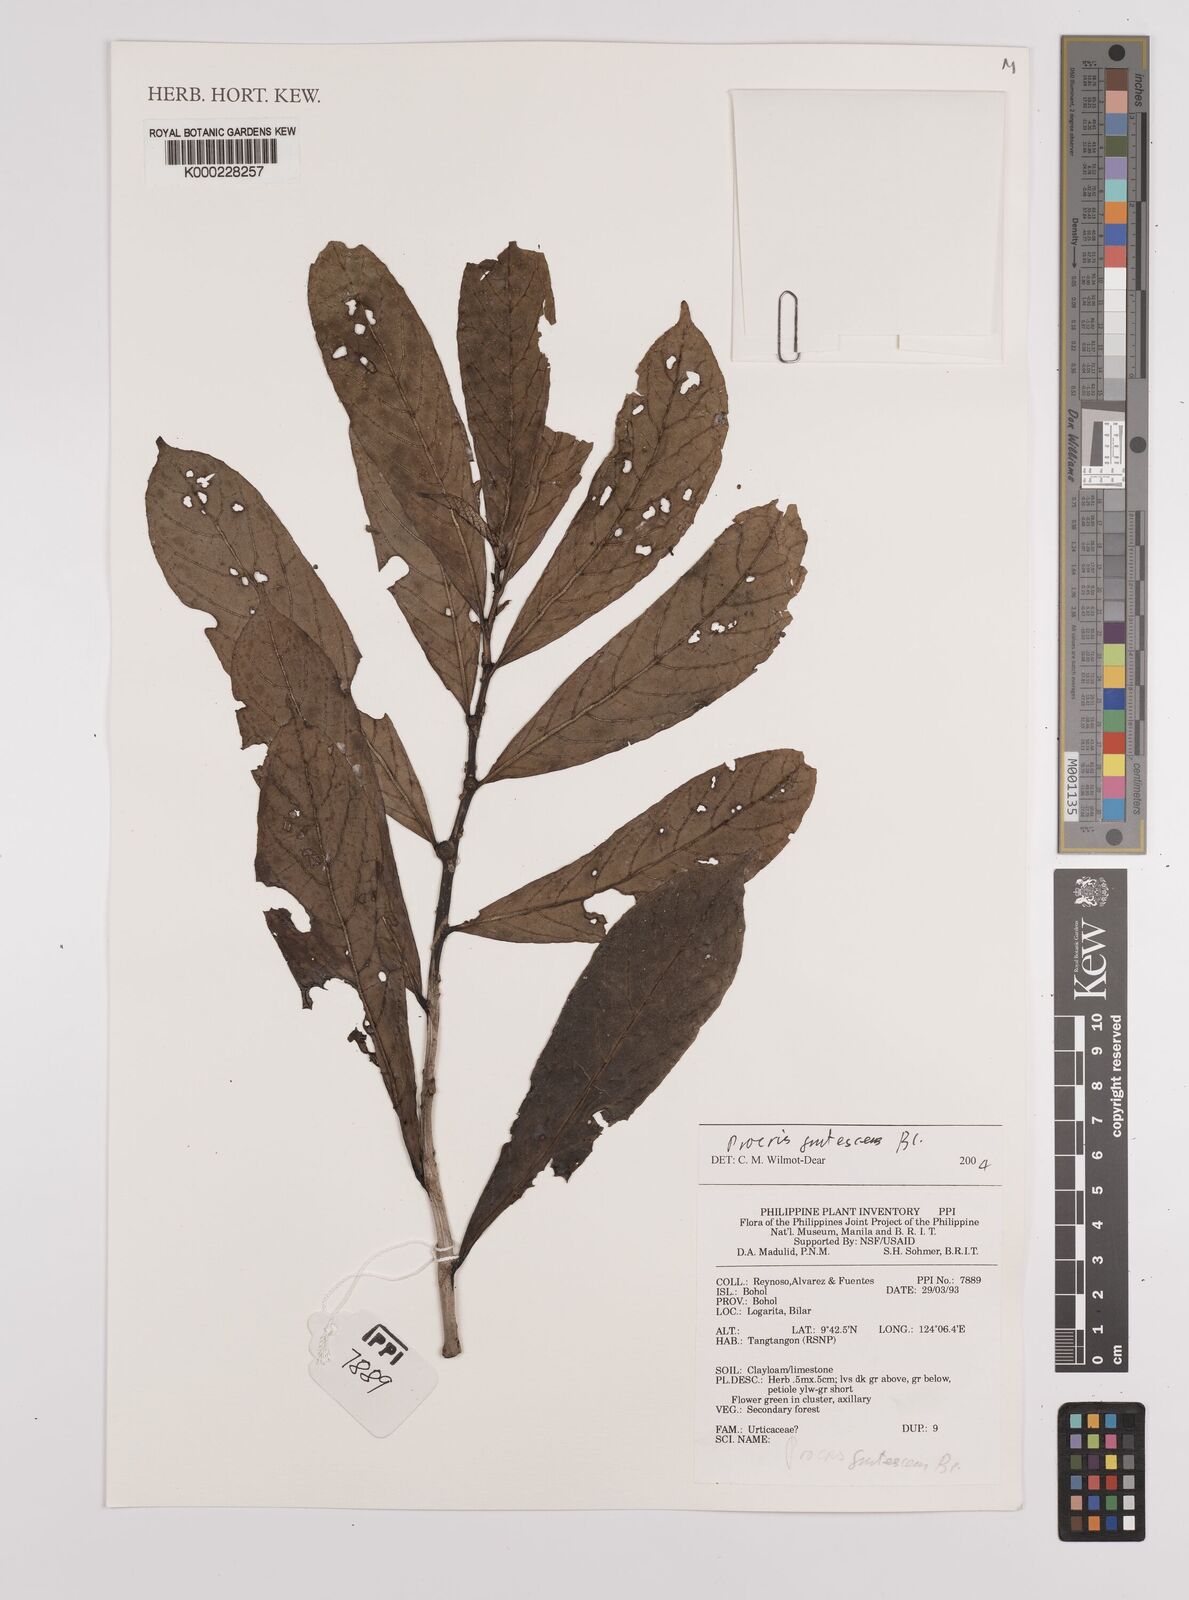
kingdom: Plantae
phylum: Tracheophyta
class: Magnoliopsida
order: Rosales
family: Urticaceae
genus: Procris
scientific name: Procris frutescens
